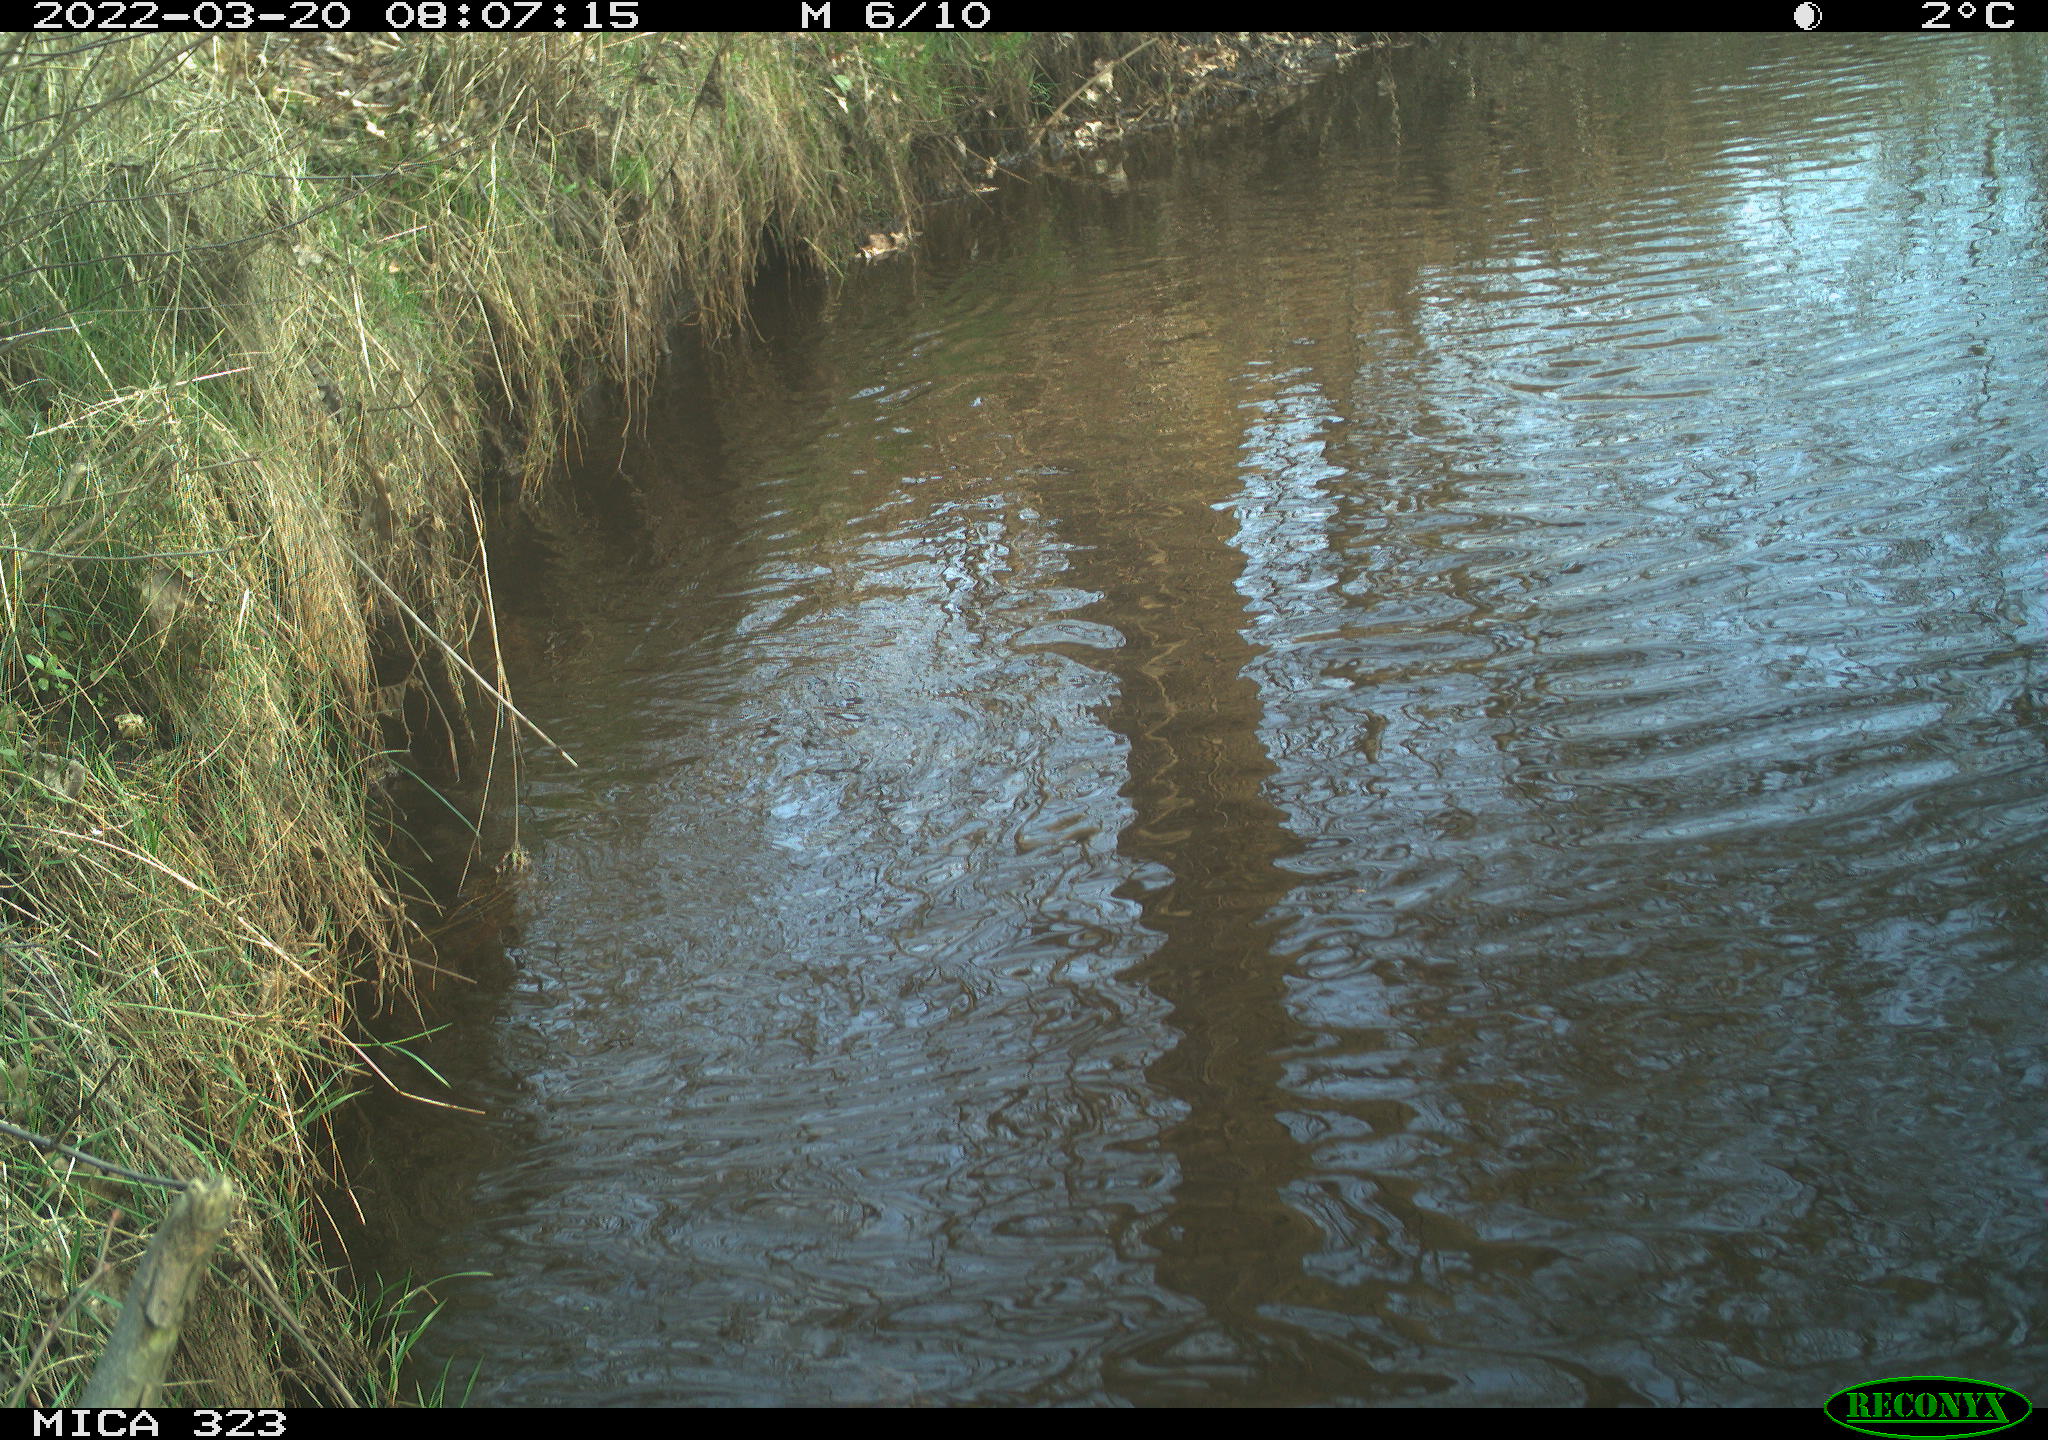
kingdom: Animalia
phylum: Chordata
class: Aves
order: Anseriformes
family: Anatidae
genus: Anas
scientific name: Anas
